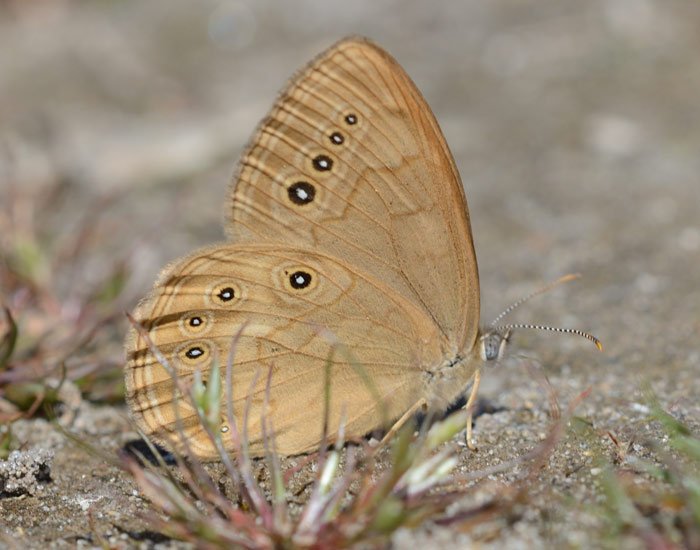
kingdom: Animalia
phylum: Arthropoda
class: Insecta
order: Lepidoptera
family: Nymphalidae
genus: Lethe
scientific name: Lethe eurydice
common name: Eyed Brown
